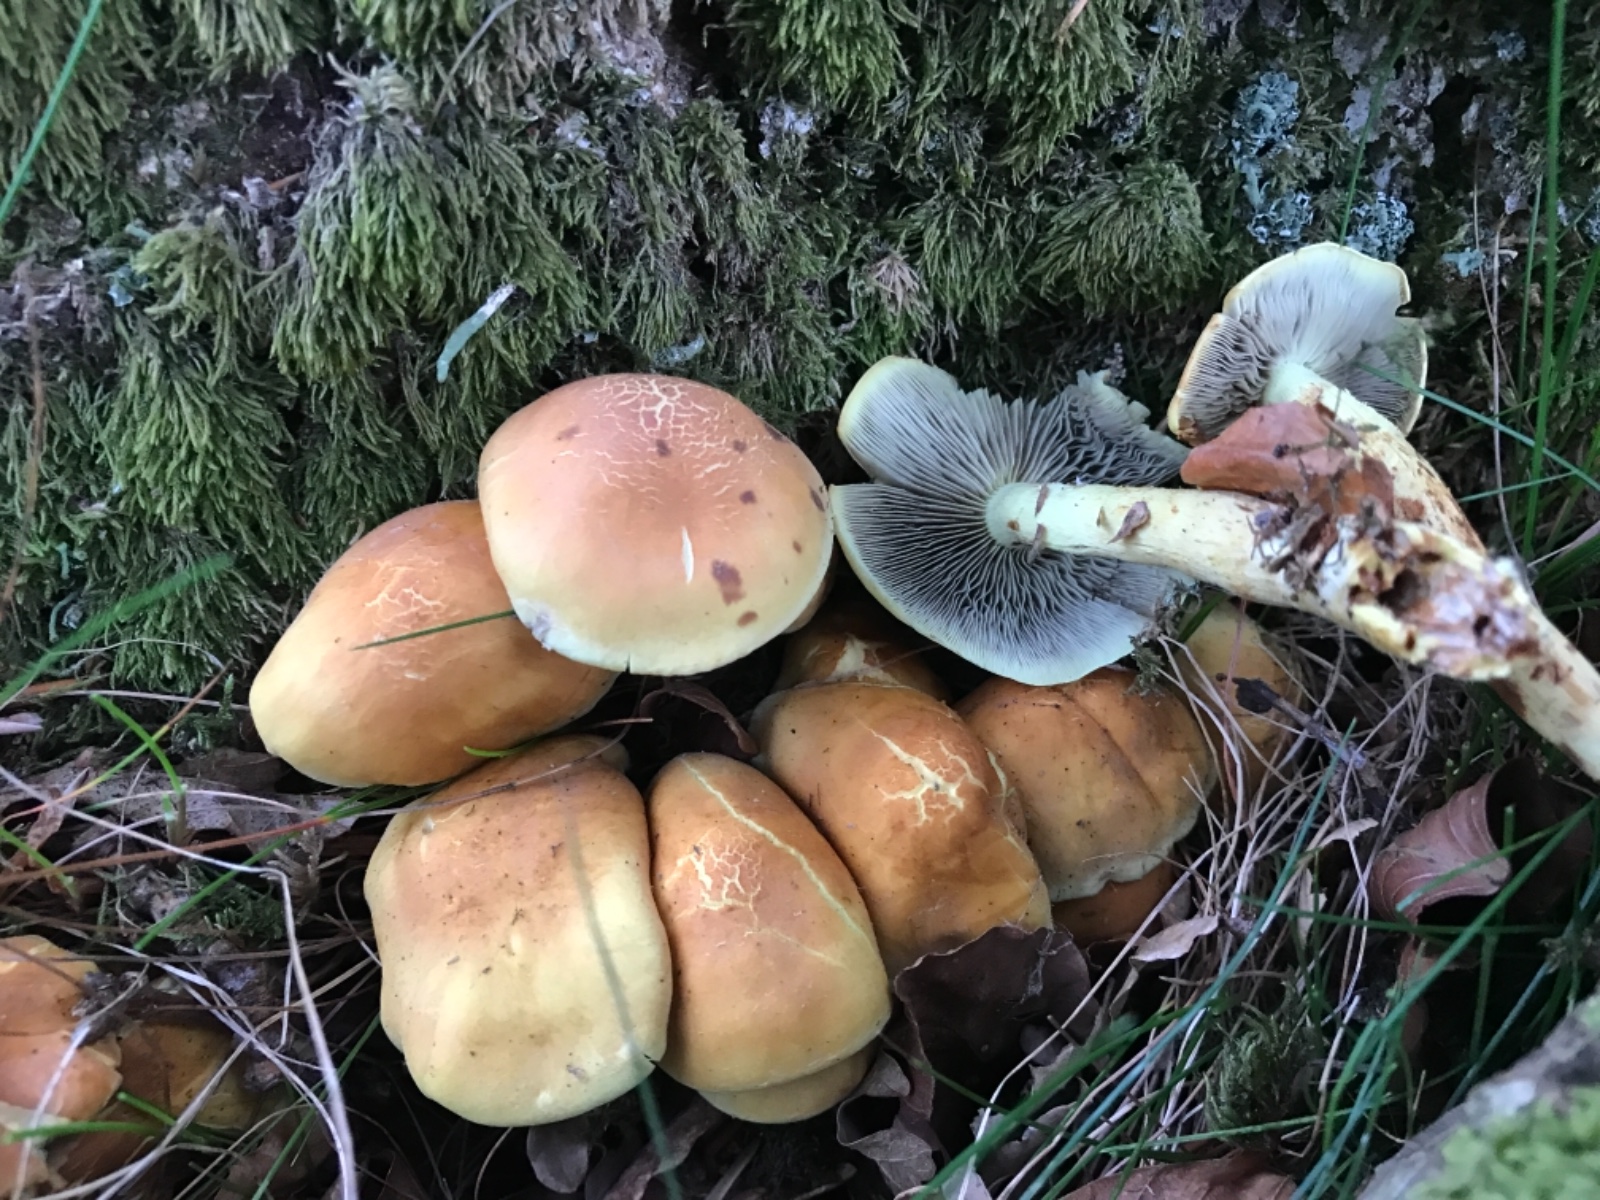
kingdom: Fungi
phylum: Basidiomycota
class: Agaricomycetes
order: Agaricales
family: Strophariaceae
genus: Hypholoma
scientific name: Hypholoma fasciculare
